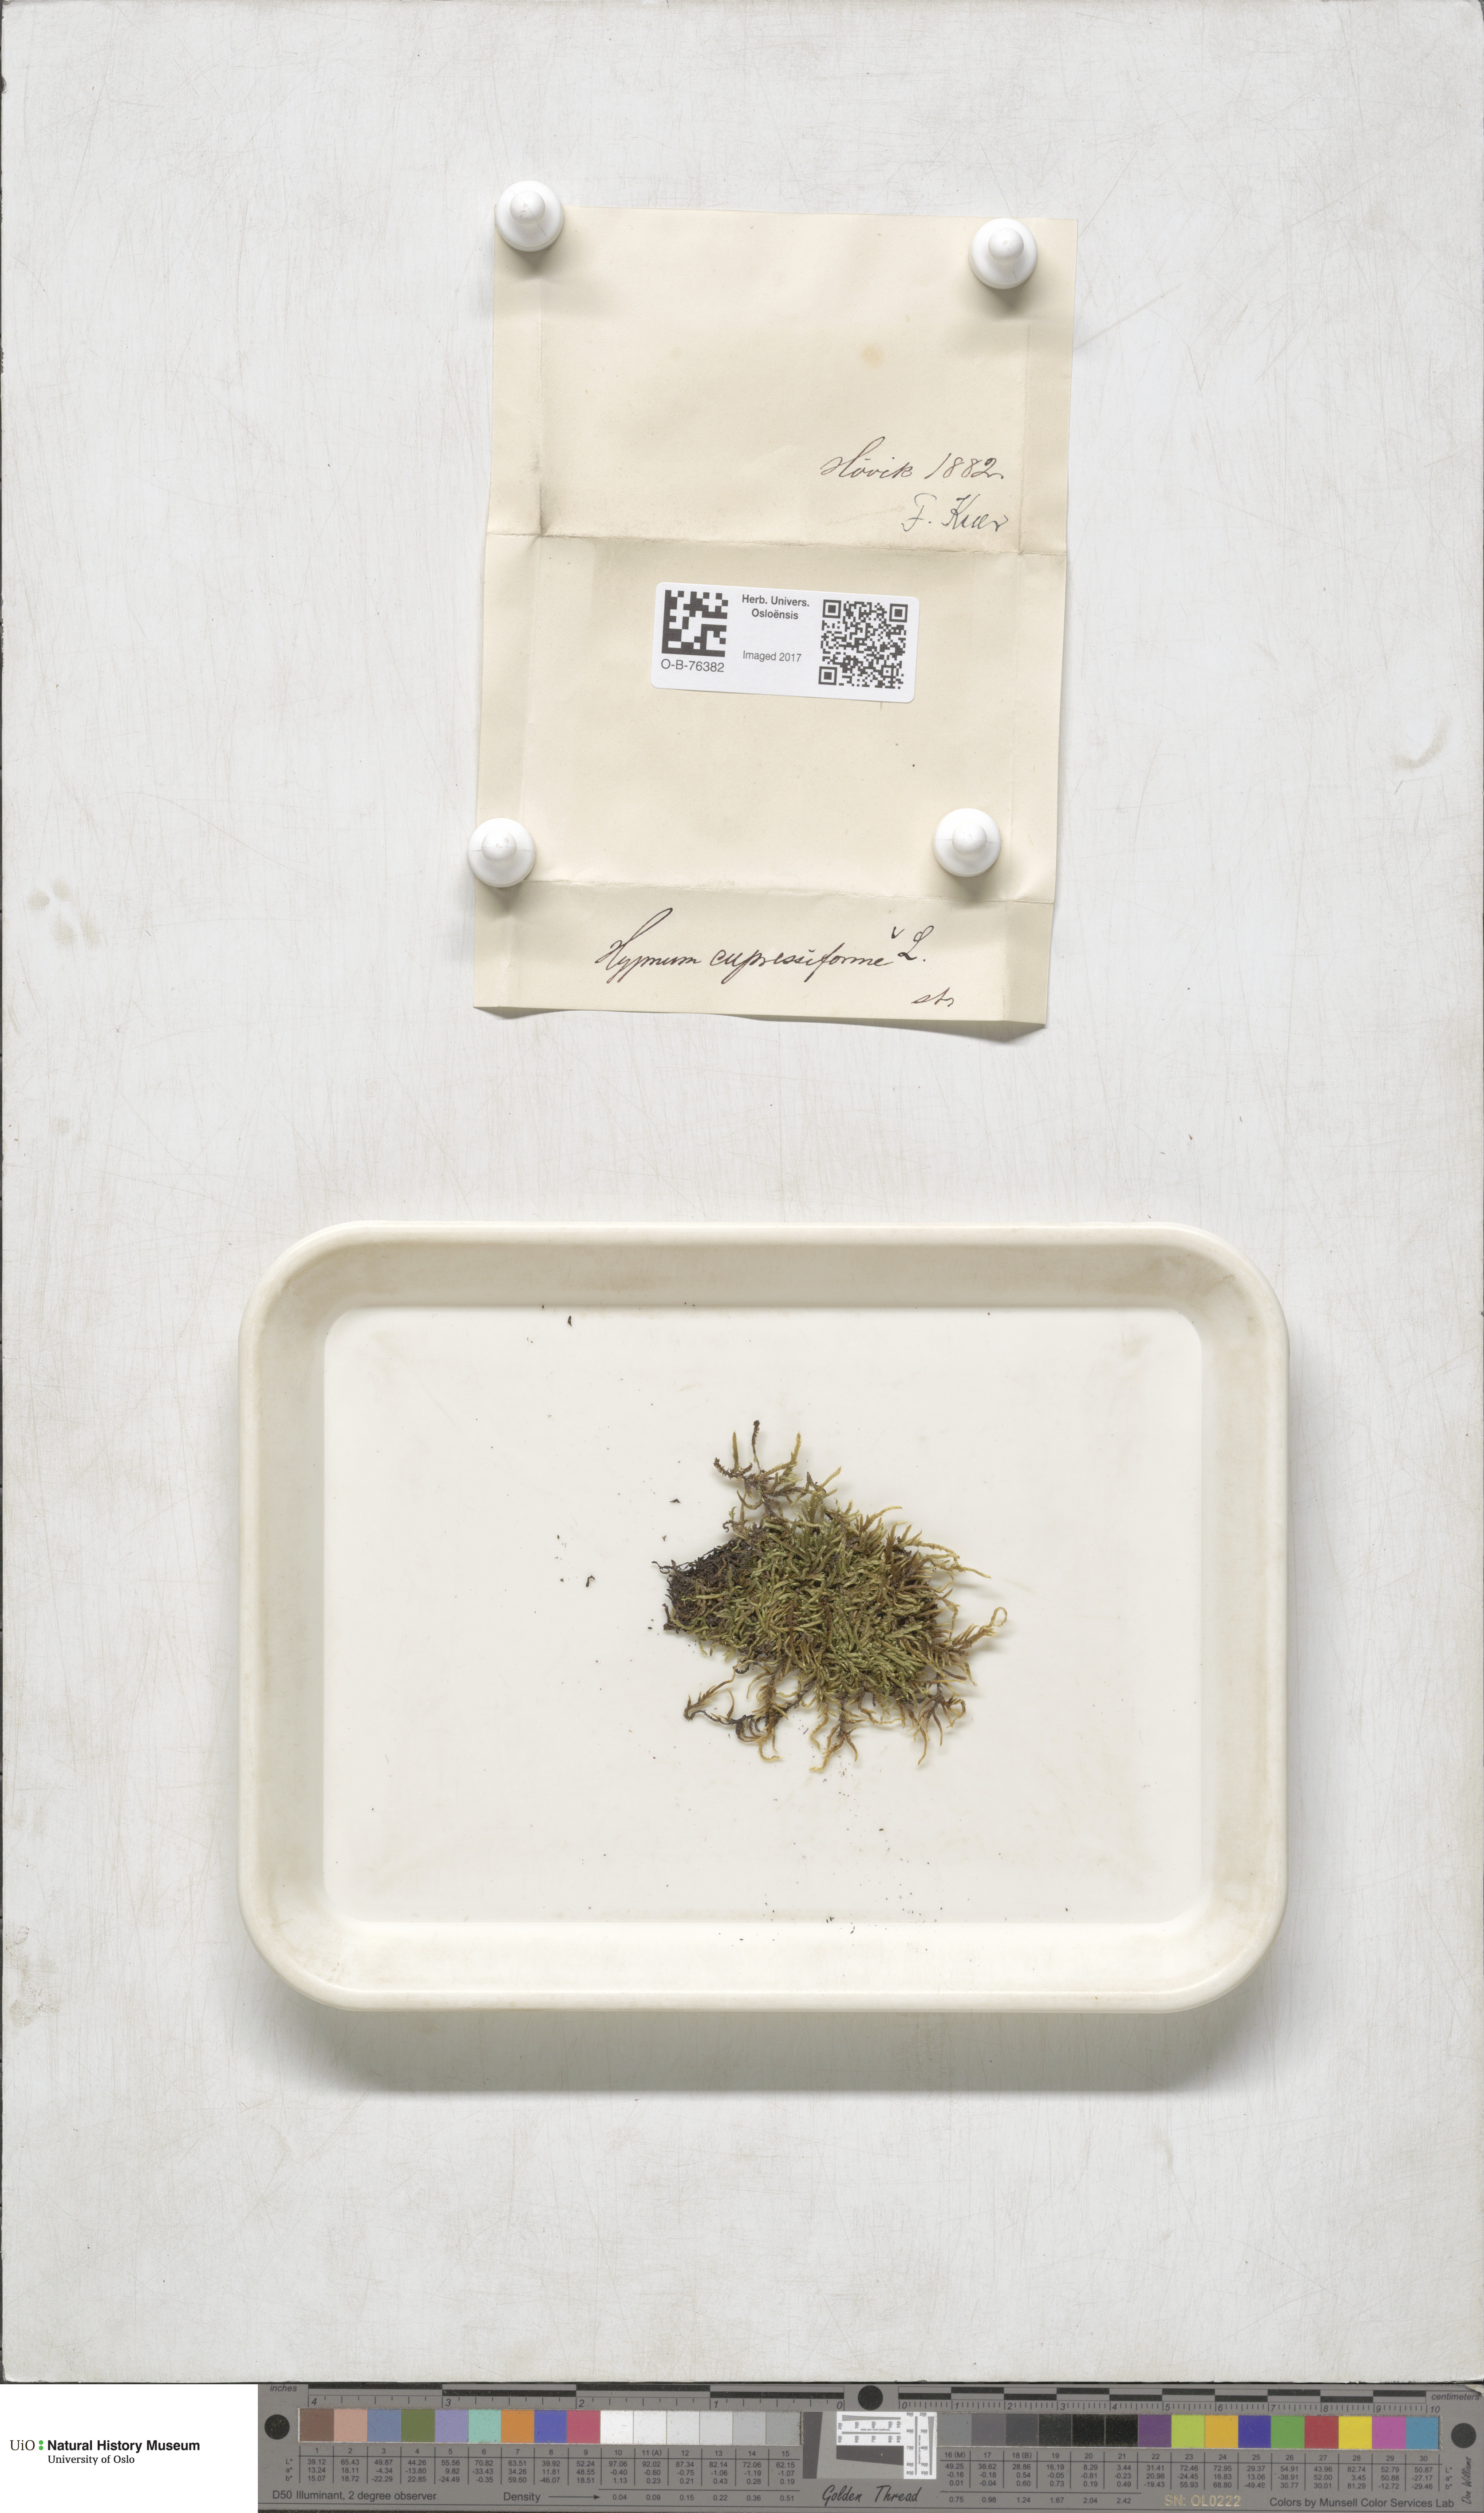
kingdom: Plantae
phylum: Bryophyta
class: Bryopsida
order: Hypnales
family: Hypnaceae
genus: Hypnum
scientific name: Hypnum cupressiforme
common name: Cypress-leaved plait-moss
